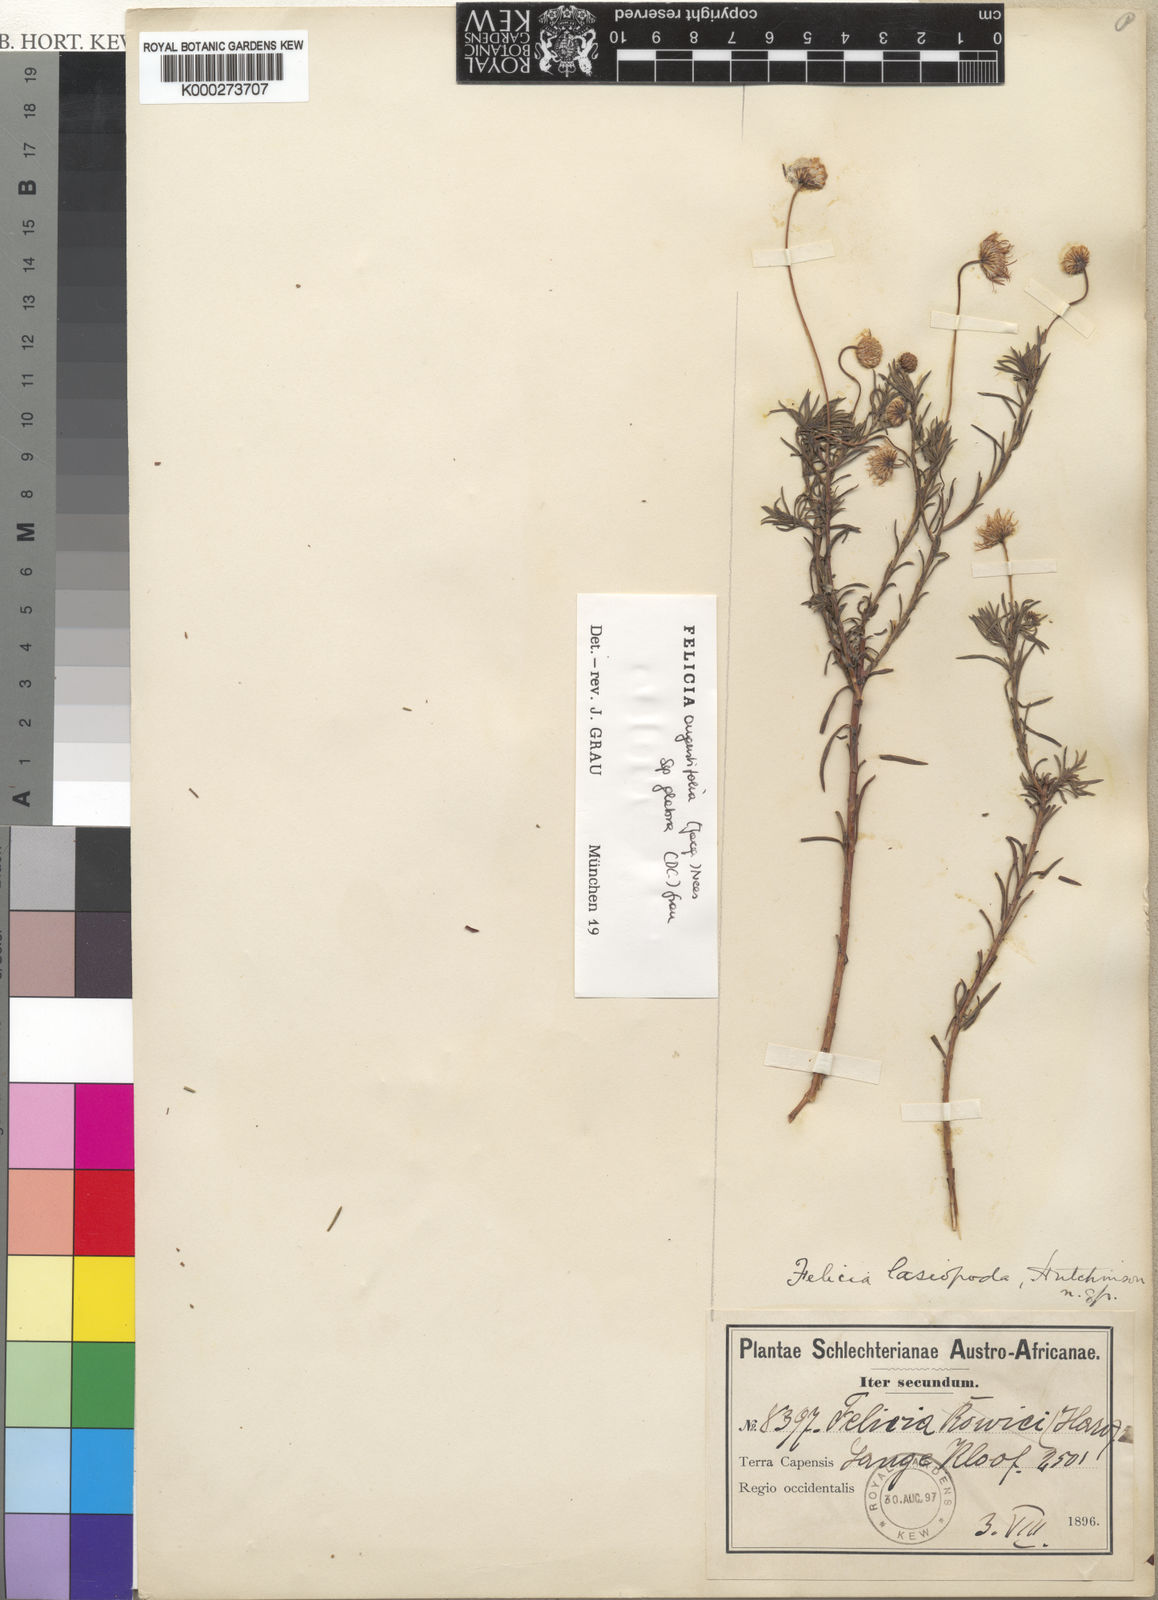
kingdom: Plantae
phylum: Tracheophyta
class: Magnoliopsida
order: Asterales
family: Asteraceae
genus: Felicia
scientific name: Felicia hyssopifolia
